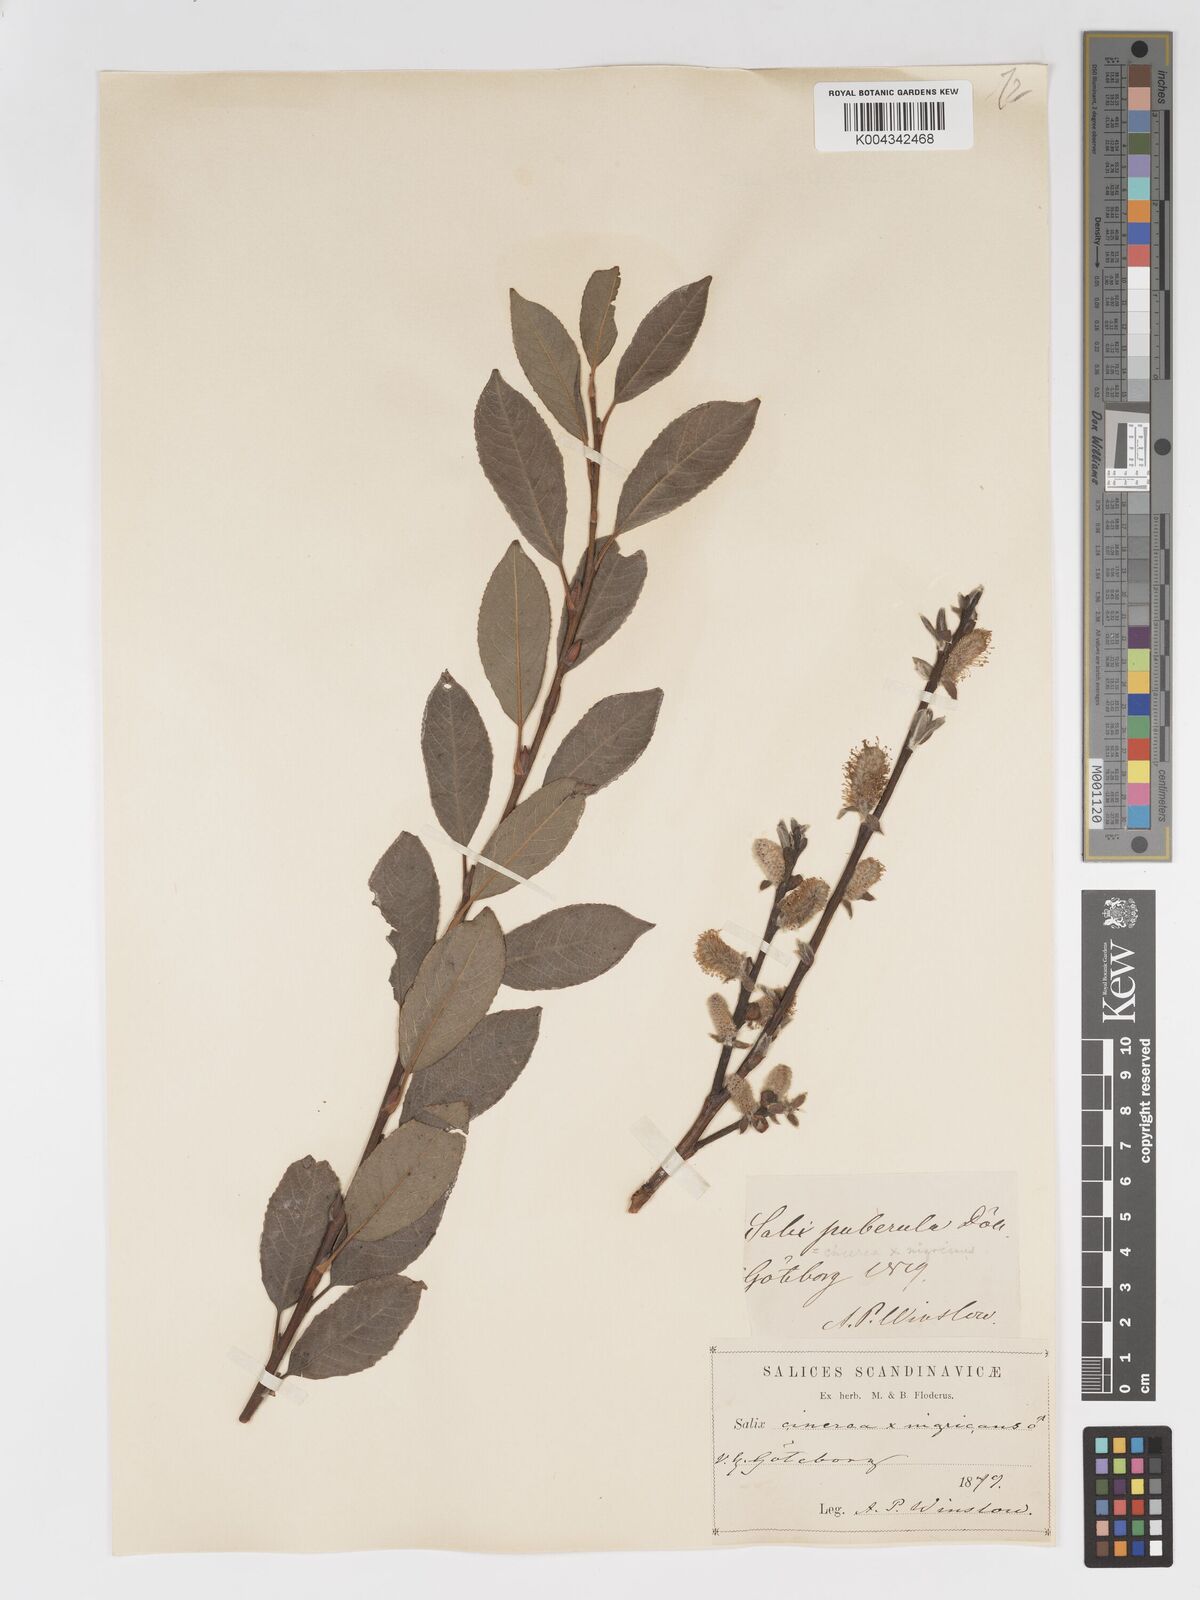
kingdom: Plantae
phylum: Tracheophyta
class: Magnoliopsida
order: Malpighiales
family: Salicaceae
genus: Salix
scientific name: Salix
